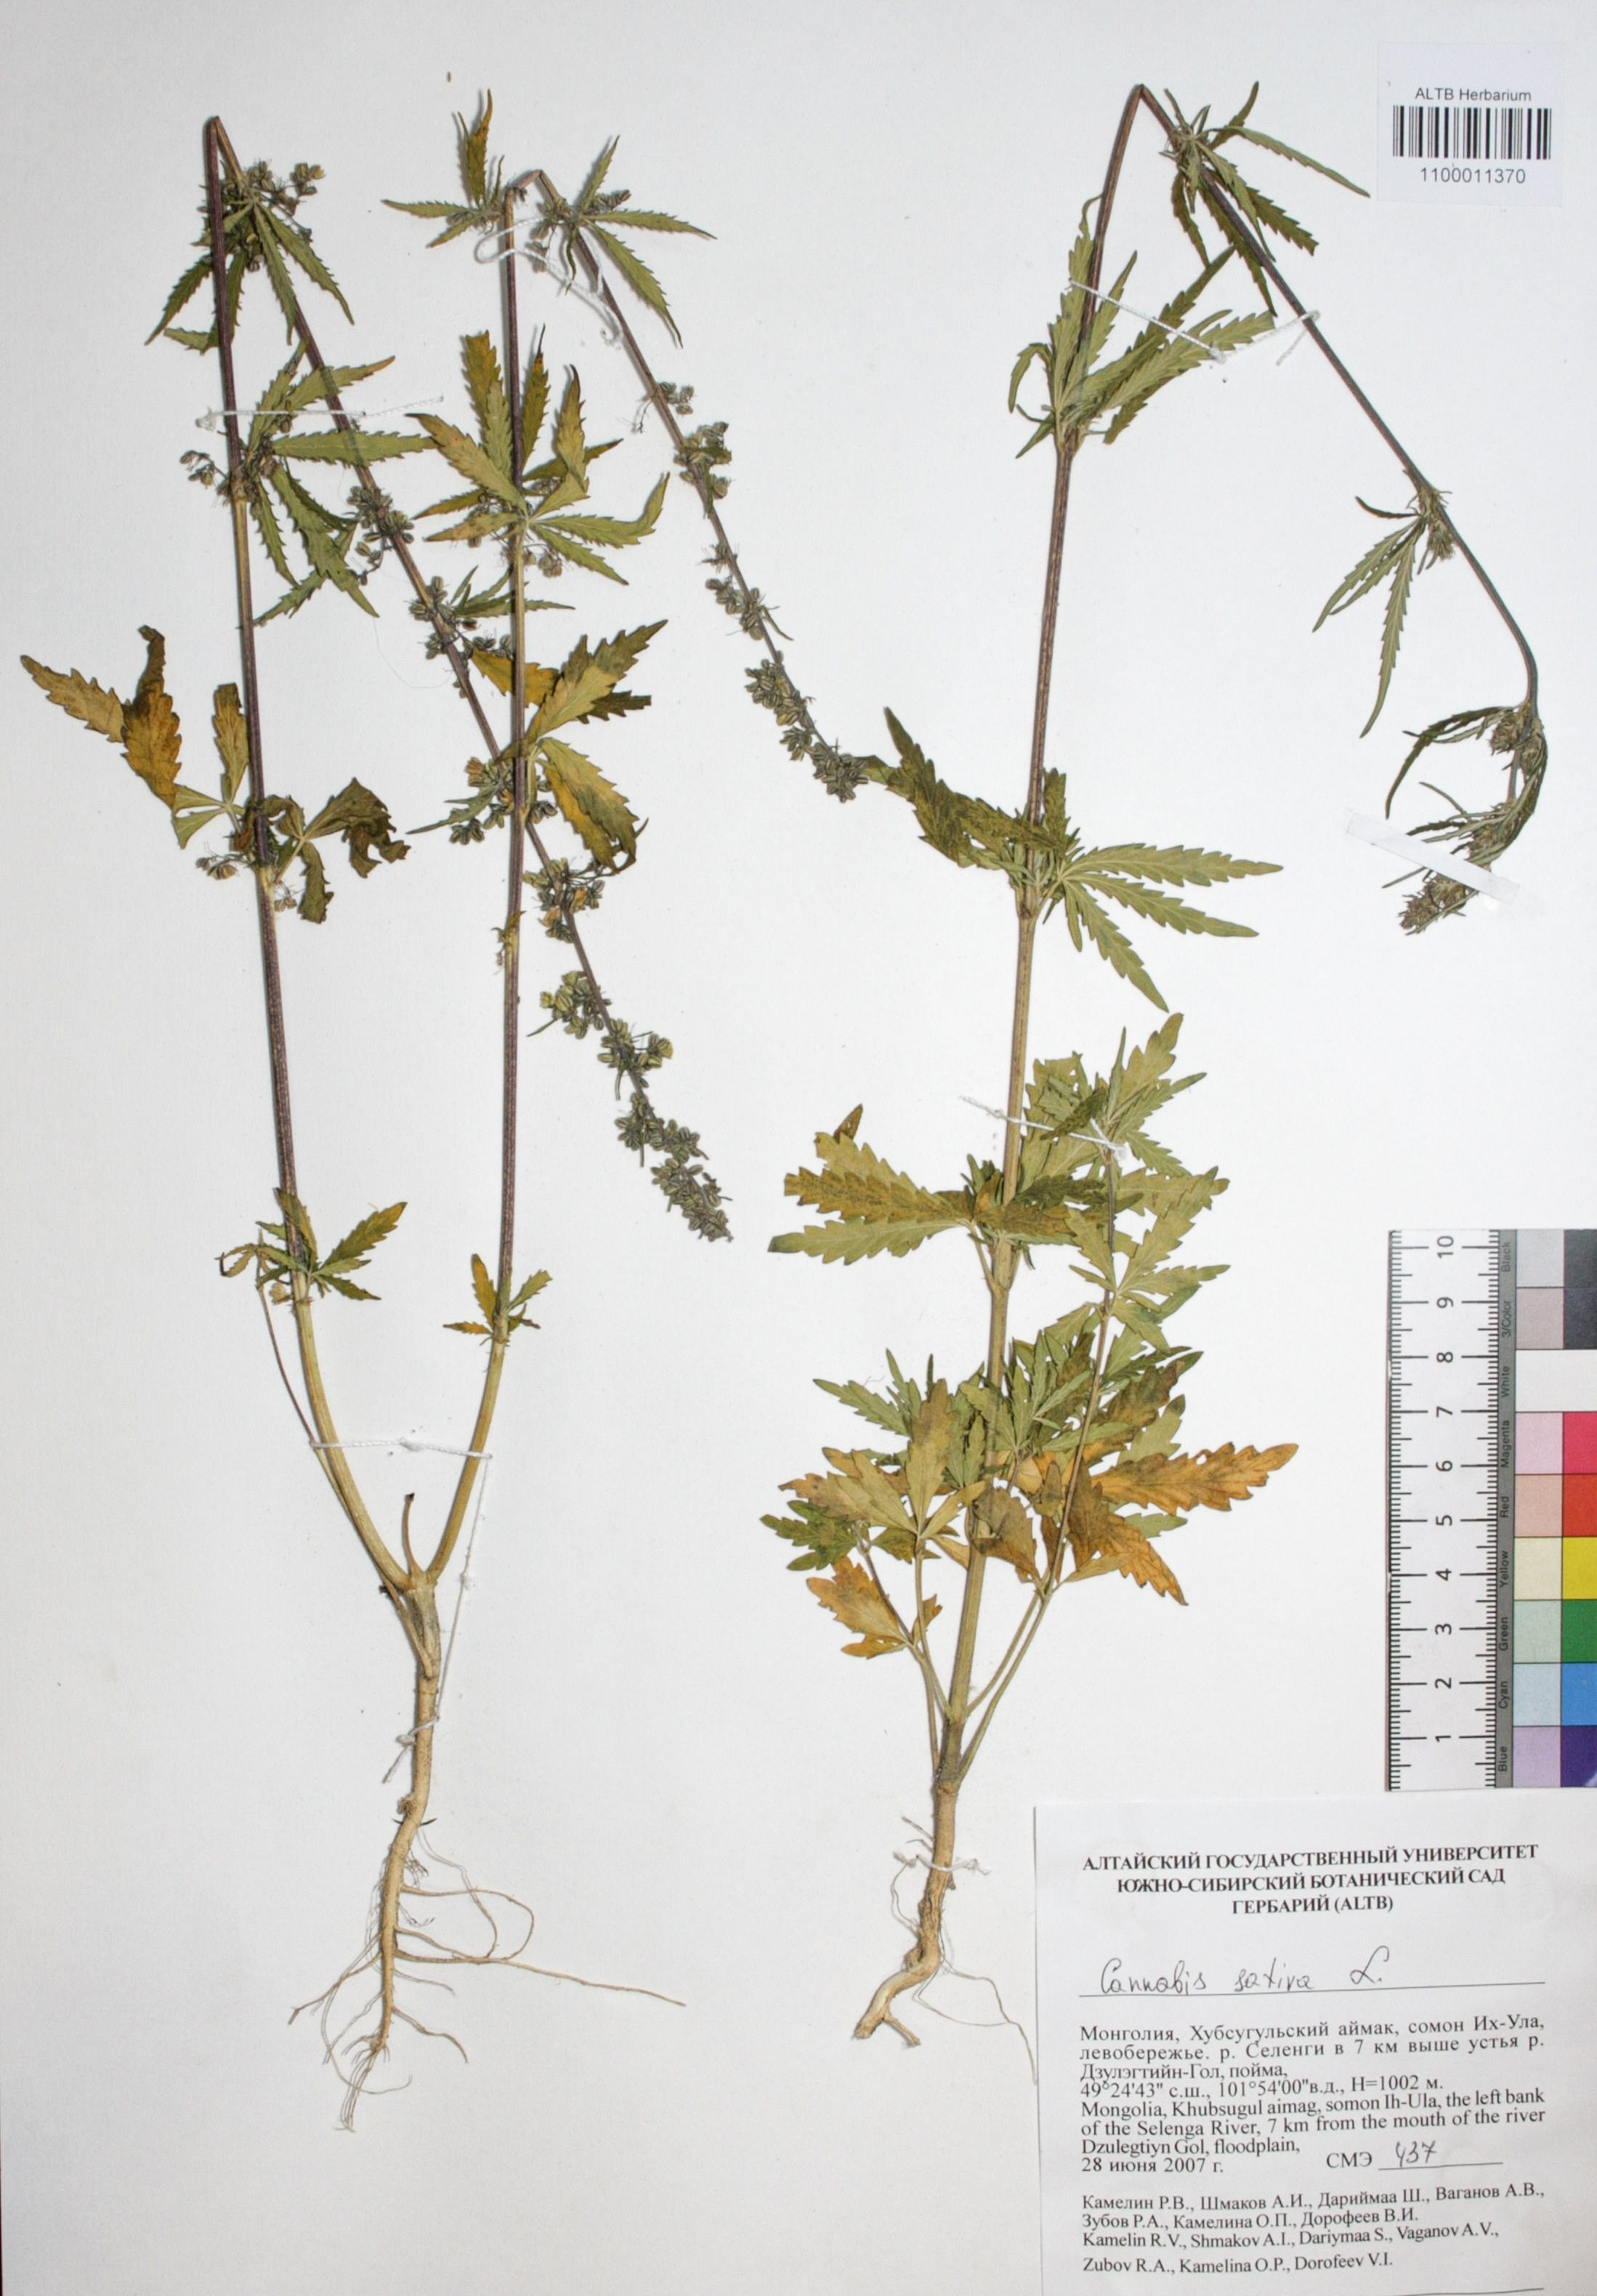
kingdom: Plantae
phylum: Tracheophyta
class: Magnoliopsida
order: Rosales
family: Cannabaceae
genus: Cannabis
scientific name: Cannabis sativa
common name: Hemp
